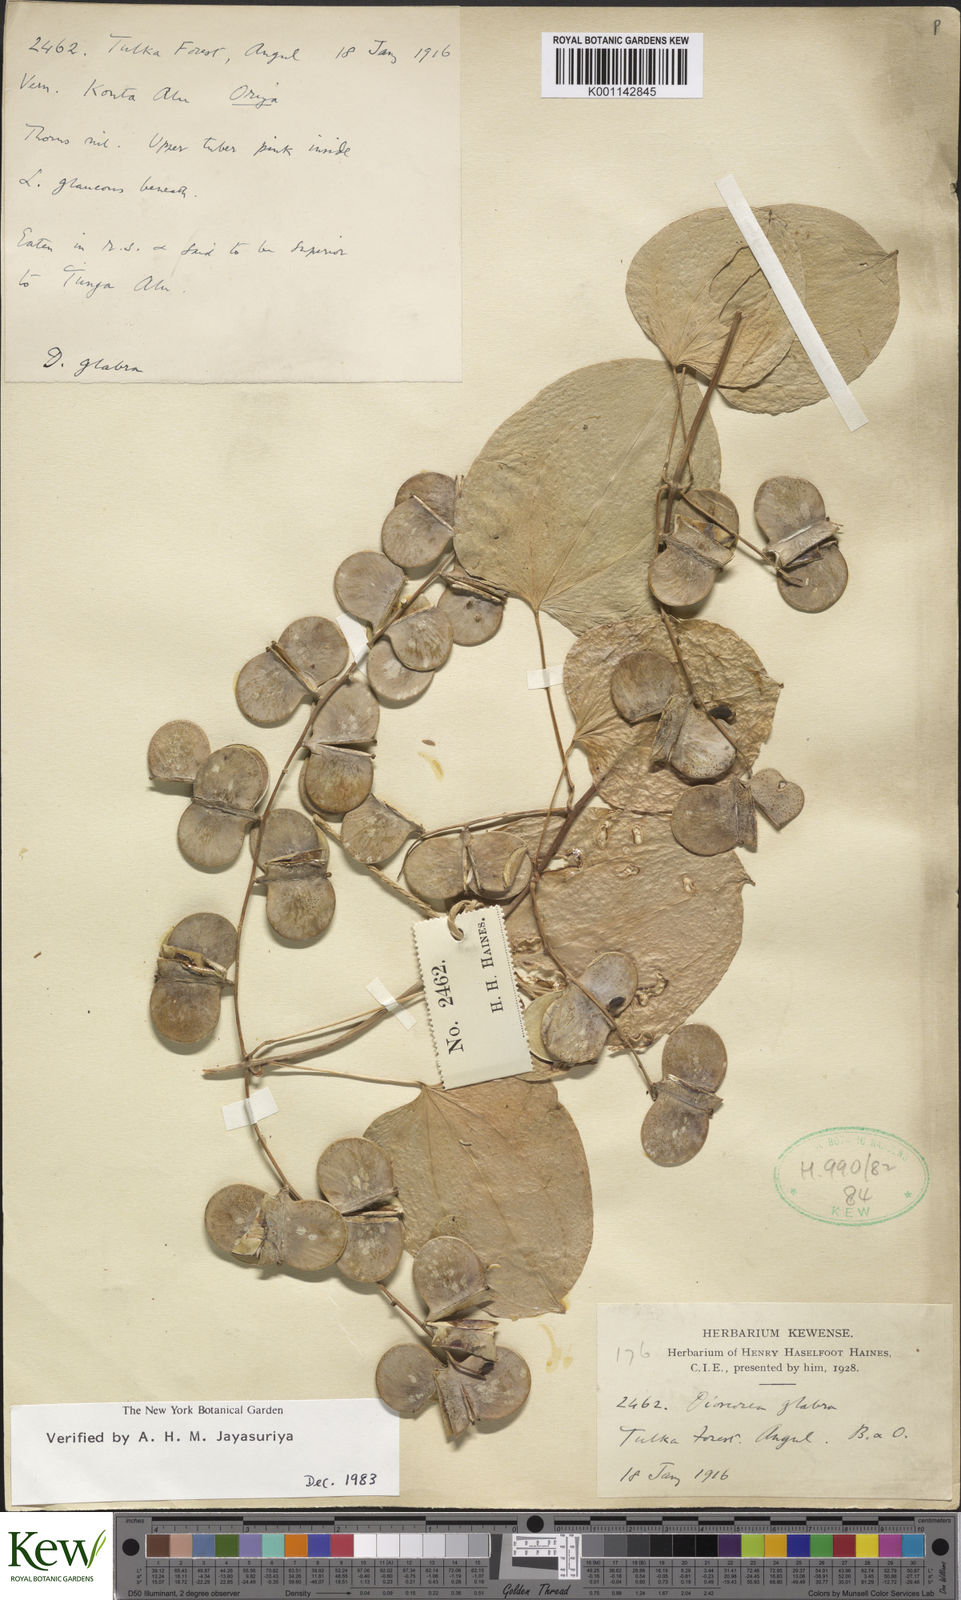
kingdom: Plantae
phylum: Tracheophyta
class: Liliopsida
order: Dioscoreales
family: Dioscoreaceae
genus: Dioscorea
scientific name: Dioscorea glabra
